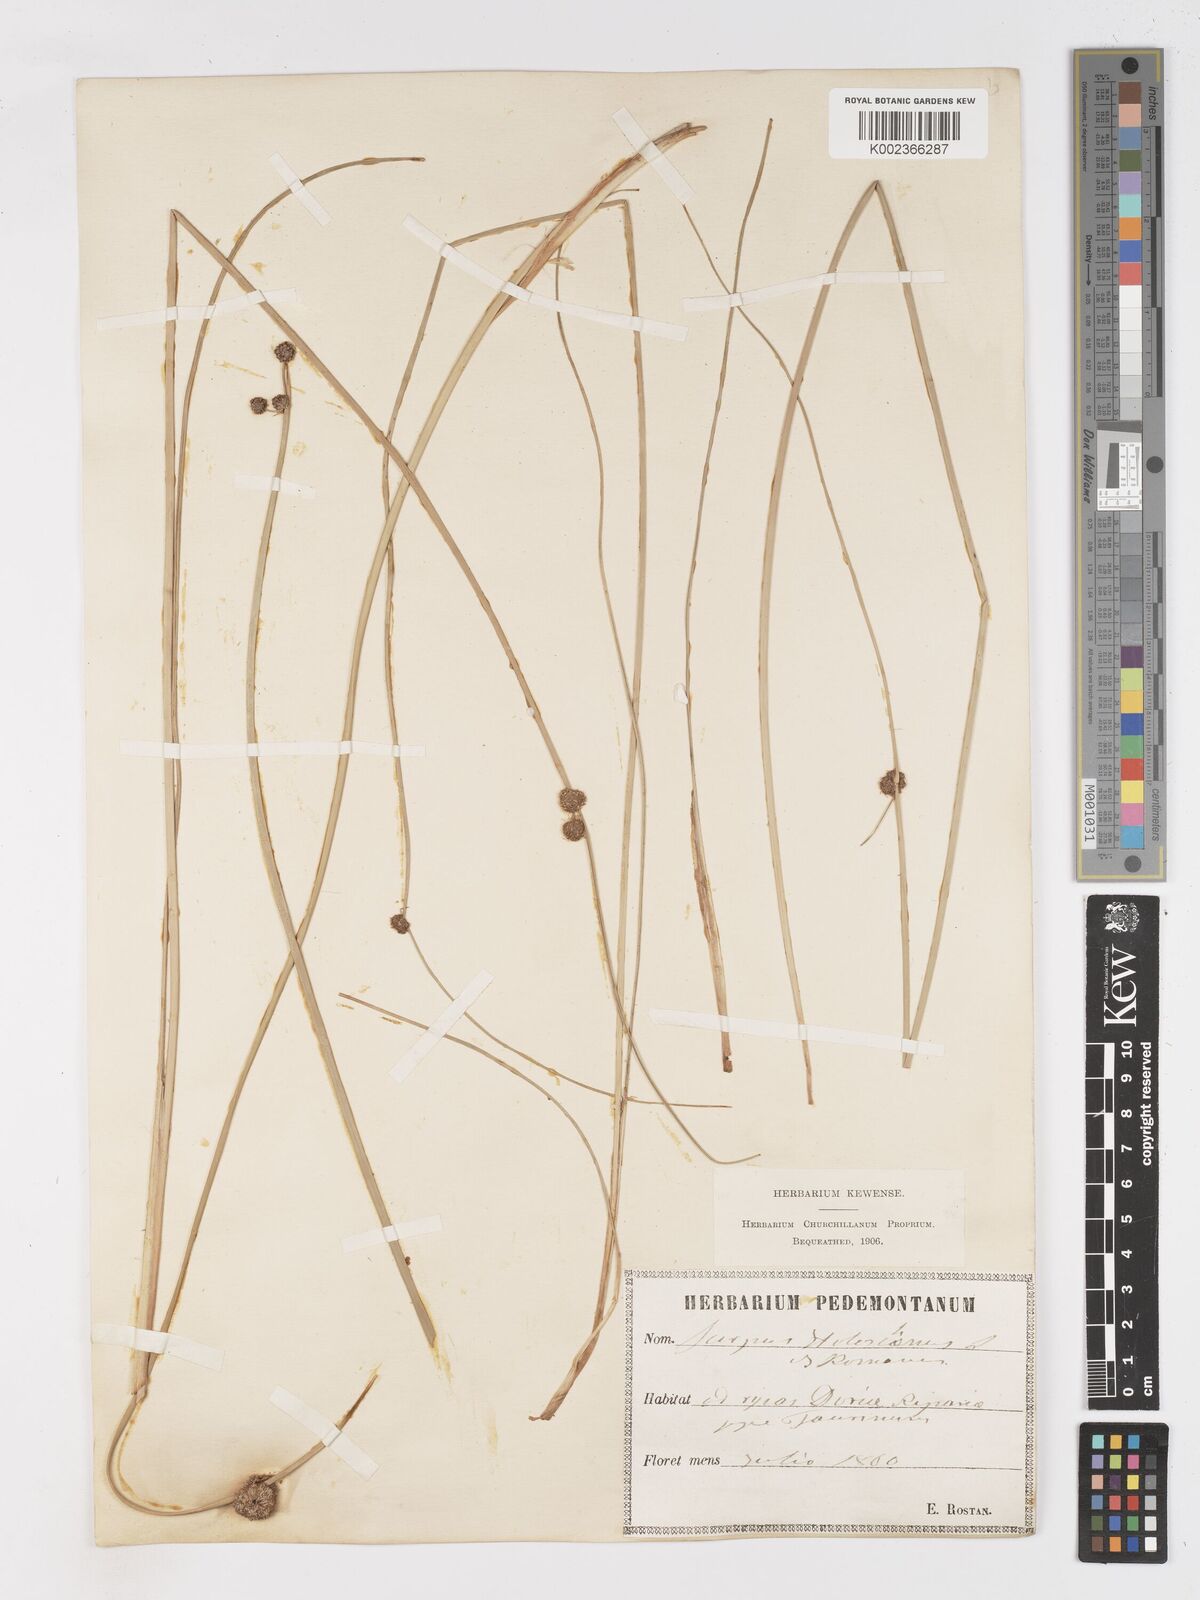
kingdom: Plantae
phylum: Tracheophyta
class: Liliopsida
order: Poales
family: Cyperaceae
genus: Scirpoides
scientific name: Scirpoides holoschoenus
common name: Round-headed club-rush
